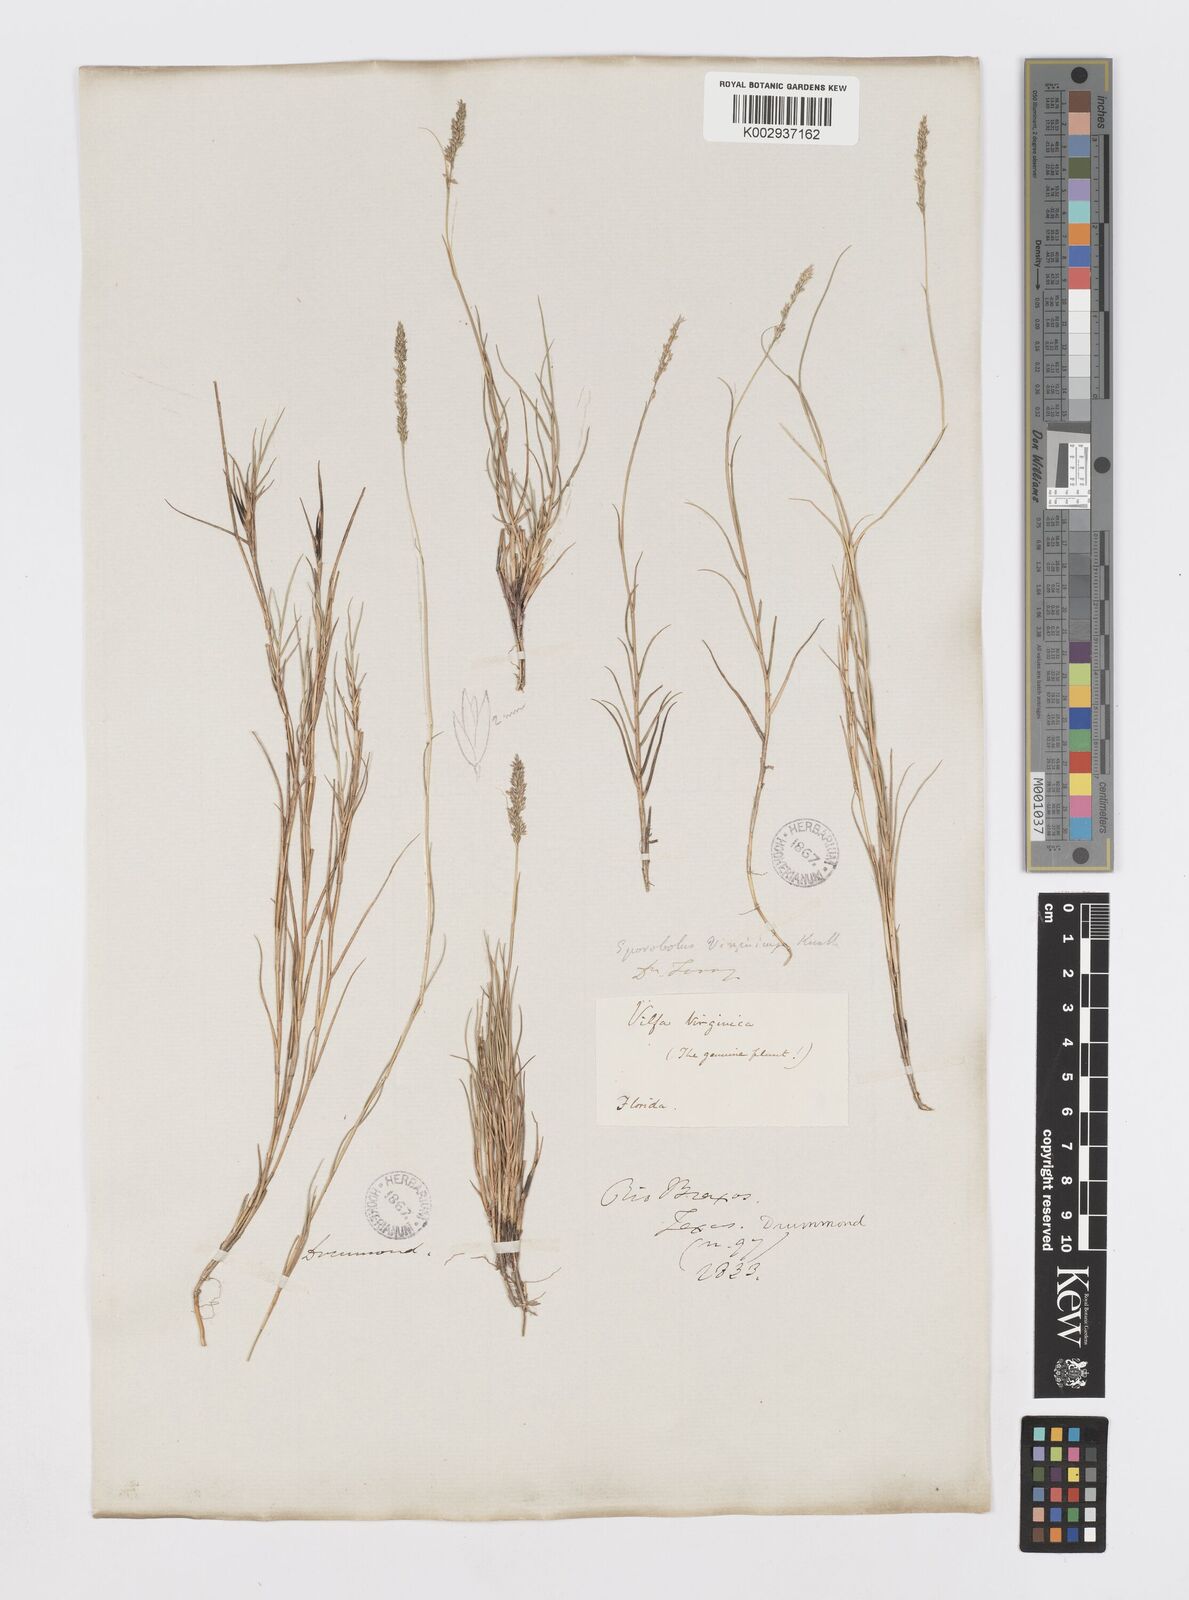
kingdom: Plantae
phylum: Tracheophyta
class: Liliopsida
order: Poales
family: Poaceae
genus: Sporobolus
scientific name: Sporobolus virginicus
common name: Beach dropseed
